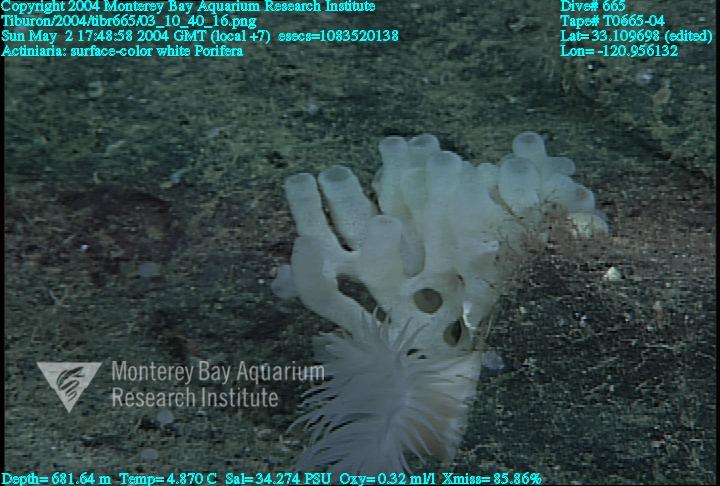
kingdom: Animalia
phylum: Porifera
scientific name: Porifera
